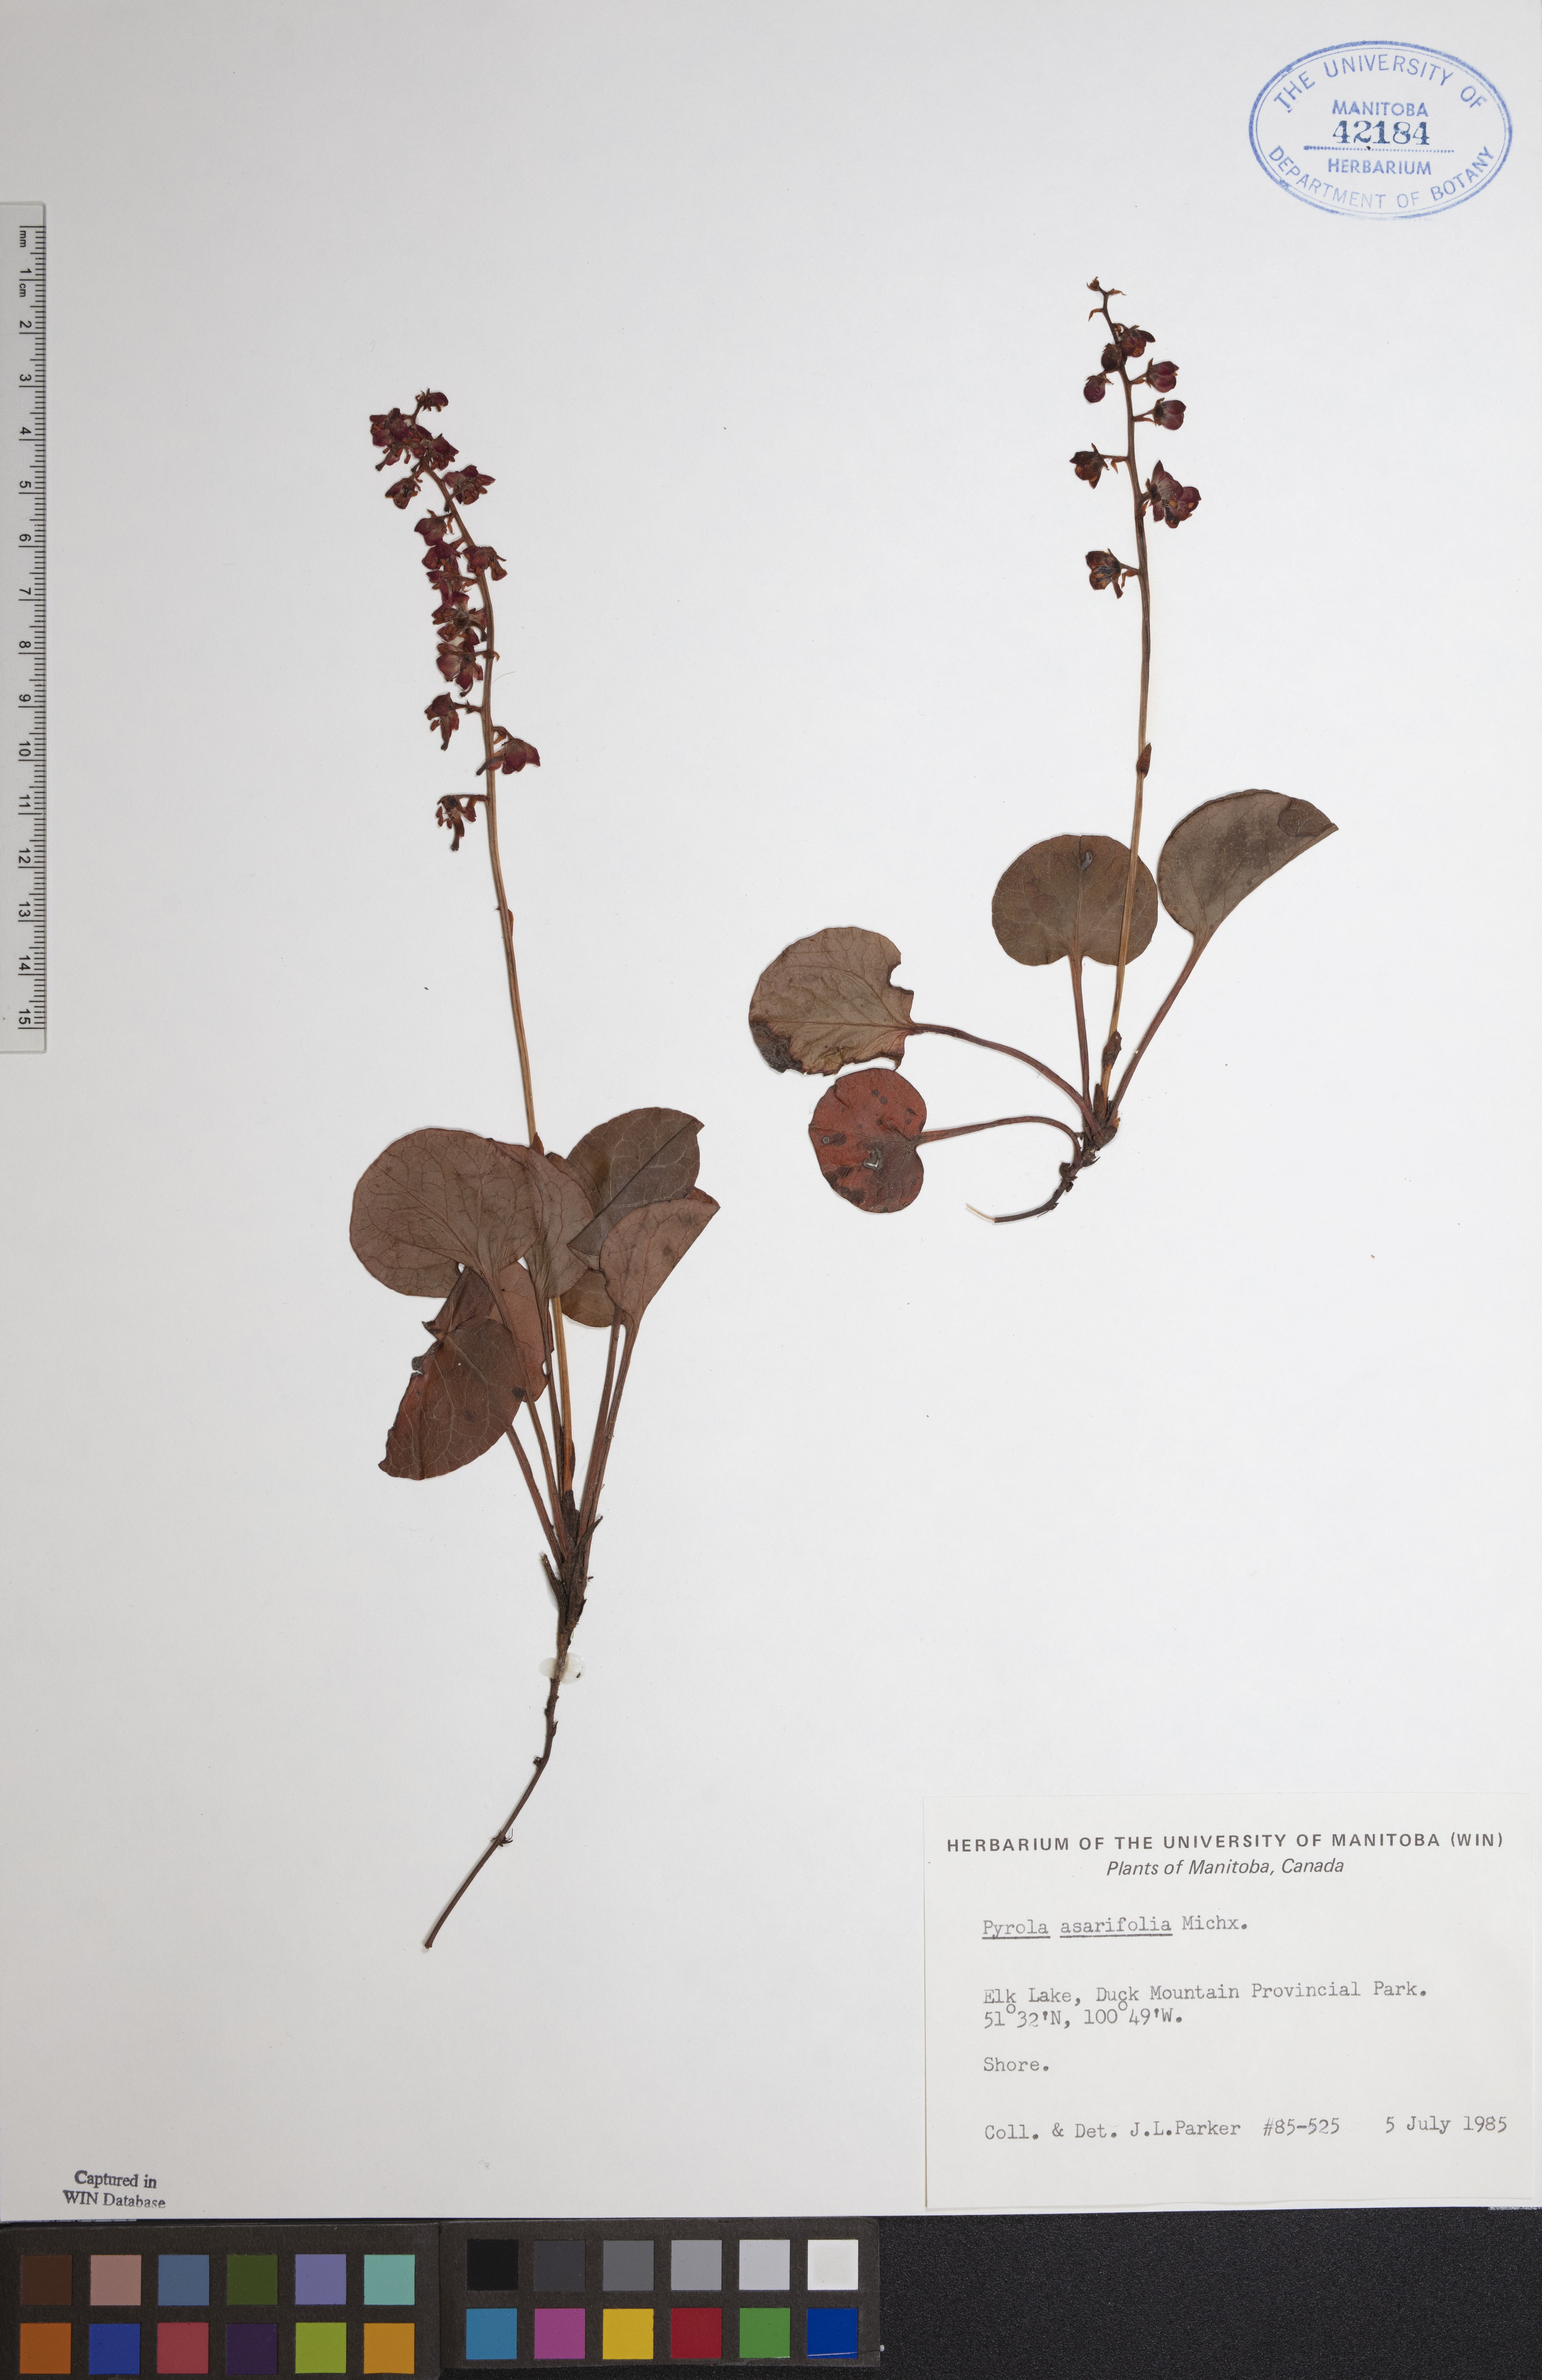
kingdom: Plantae
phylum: Tracheophyta
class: Magnoliopsida
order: Ericales
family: Ericaceae
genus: Pyrola
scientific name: Pyrola asarifolia
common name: Bog wintergreen
